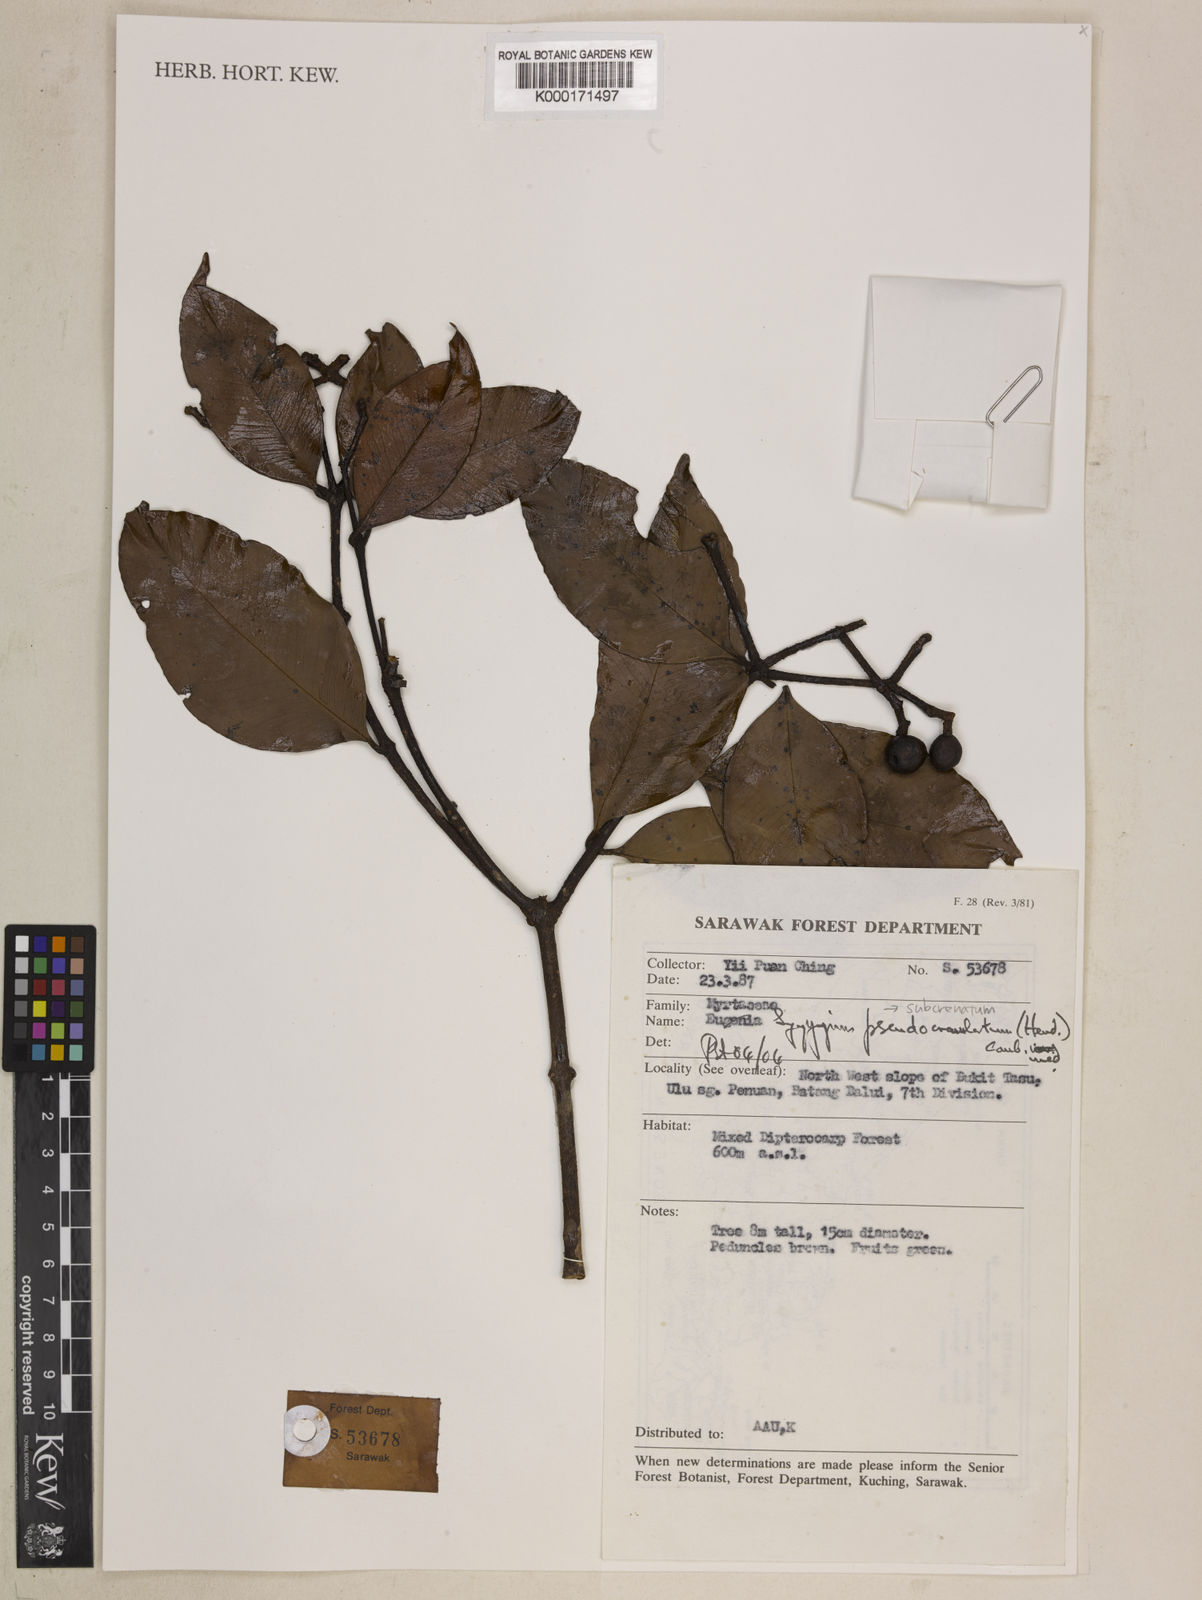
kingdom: Plantae
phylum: Tracheophyta
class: Magnoliopsida
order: Myrtales
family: Myrtaceae
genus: Syzygium
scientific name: Syzygium pseudocrenulatum
